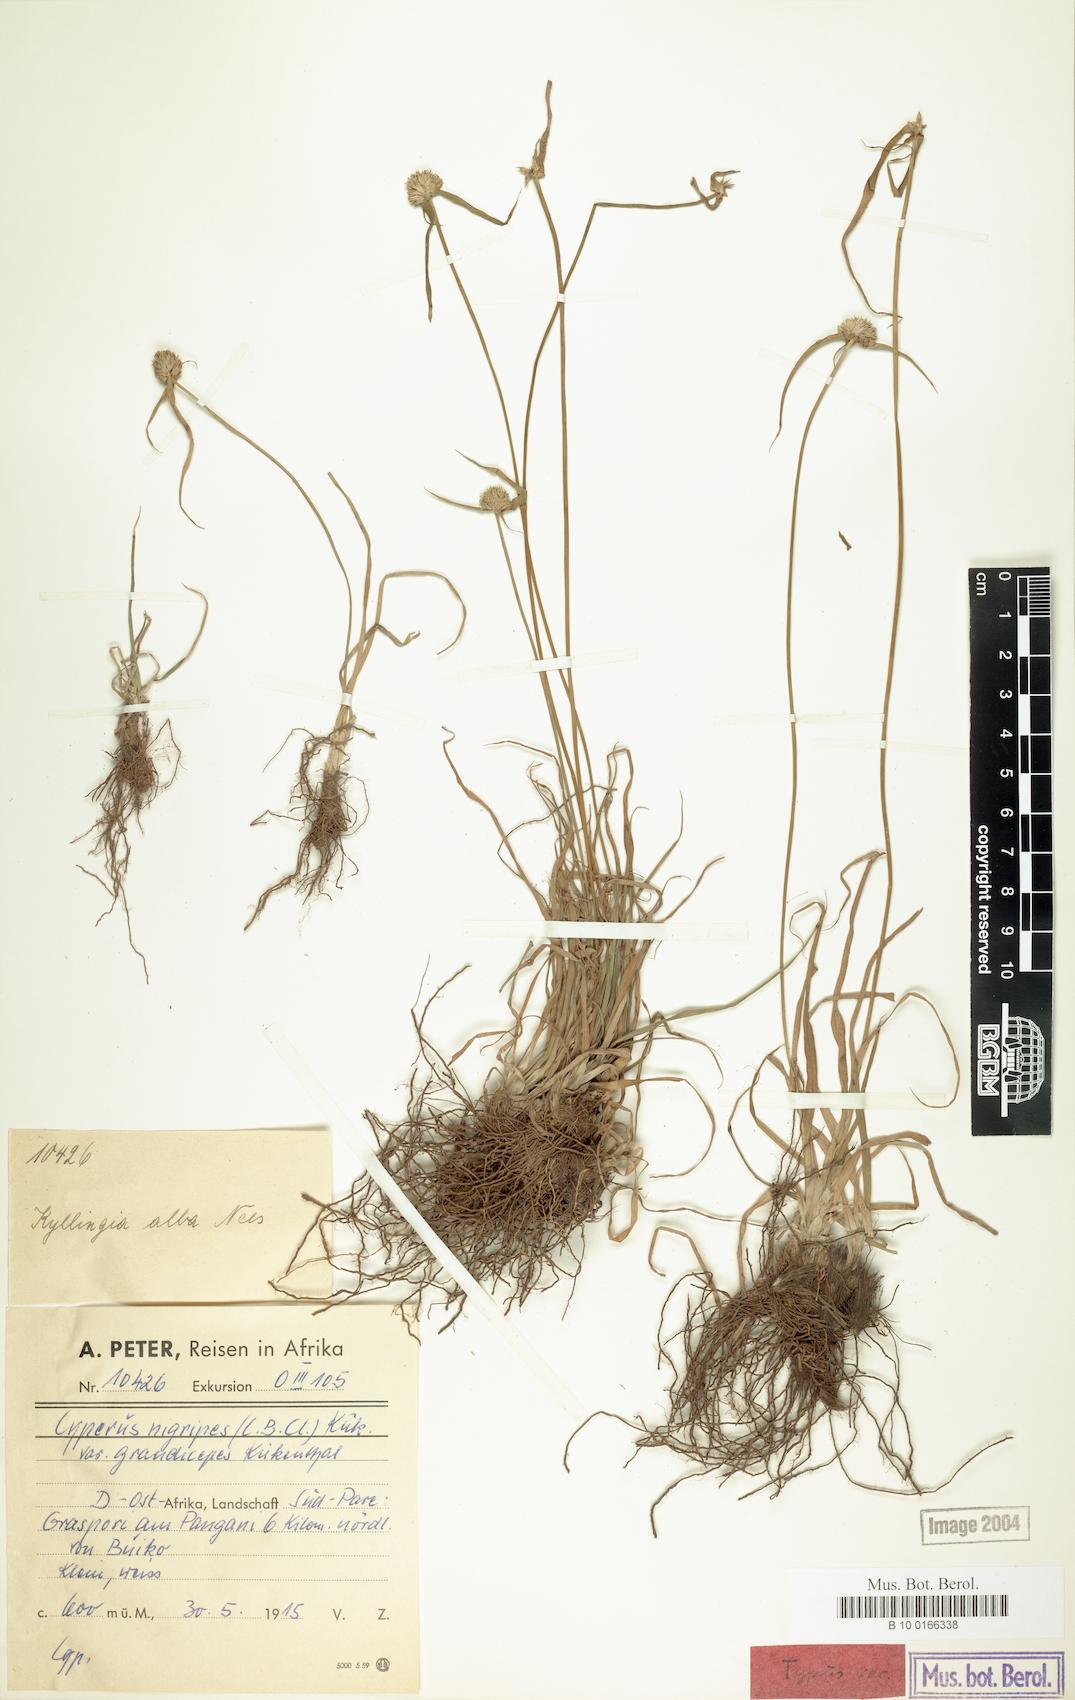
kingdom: Plantae
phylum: Tracheophyta
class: Liliopsida
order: Poales
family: Cyperaceae
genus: Cyperus
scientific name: Cyperus alatus
